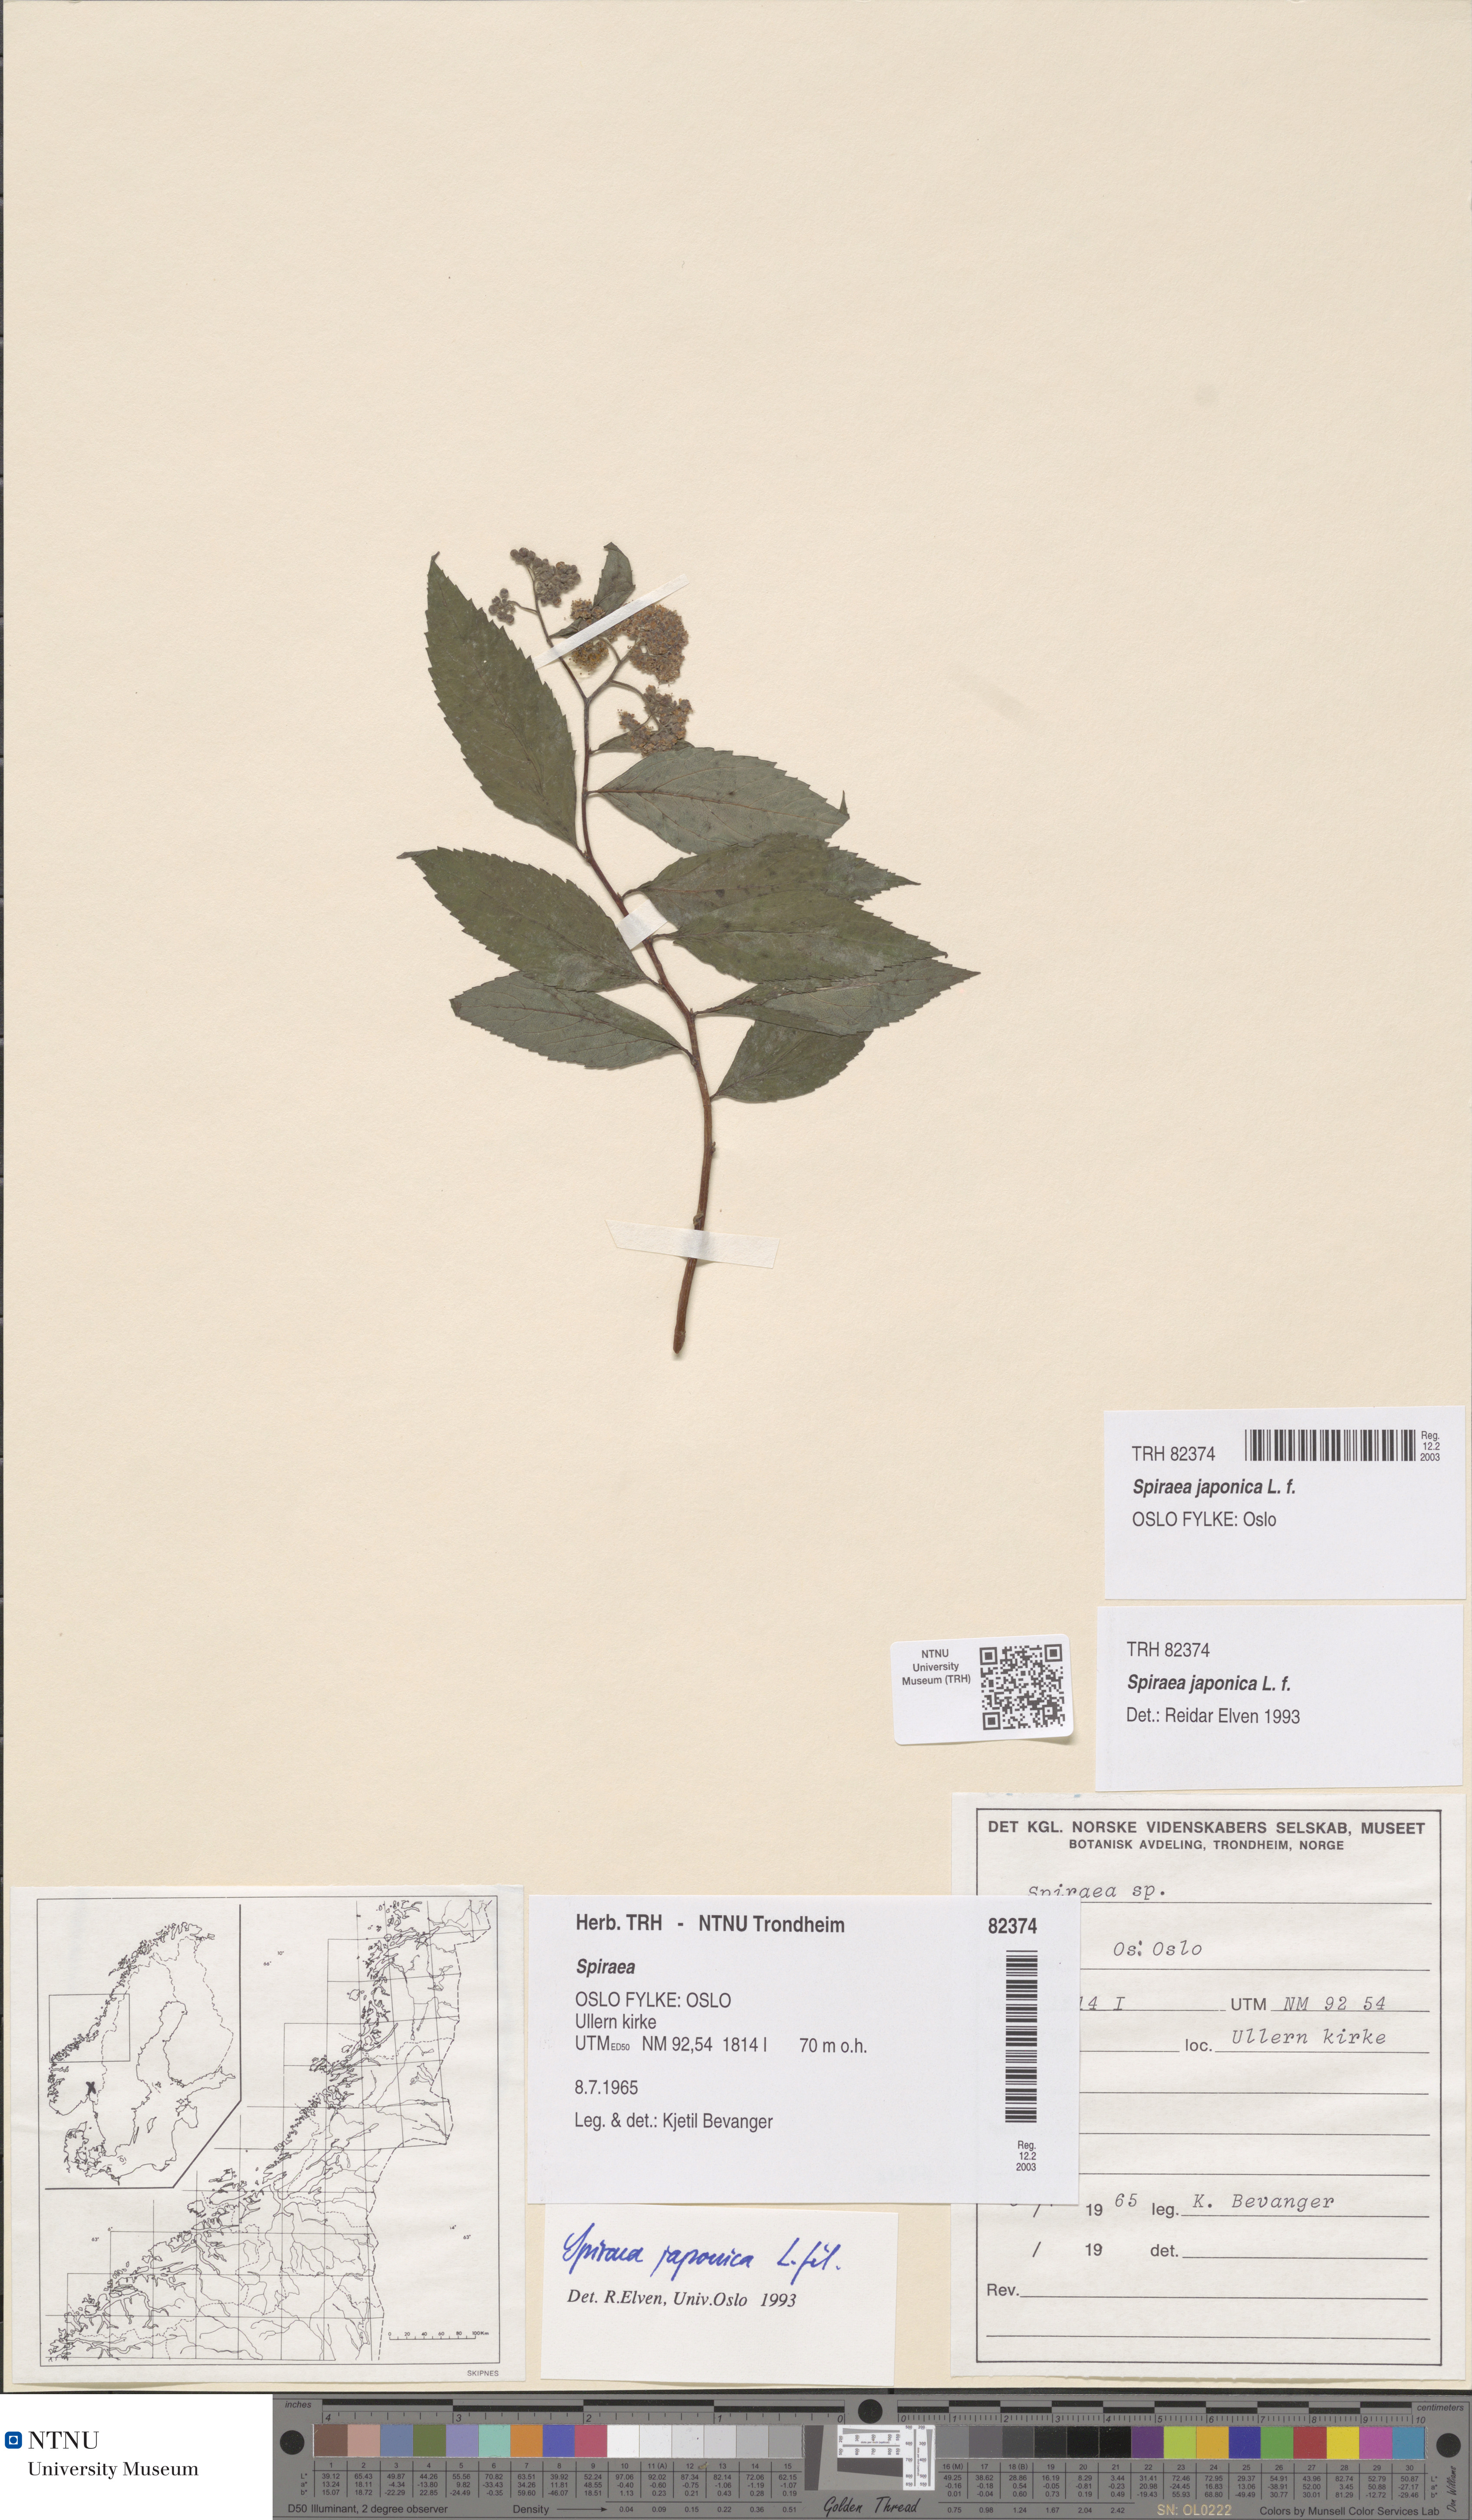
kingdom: Plantae
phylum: Tracheophyta
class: Magnoliopsida
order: Rosales
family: Rosaceae
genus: Spiraea
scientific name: Spiraea japonica
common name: Japanese spiraea
